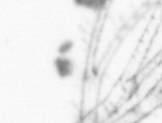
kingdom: Animalia
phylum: Arthropoda
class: Maxillopoda
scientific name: Maxillopoda
